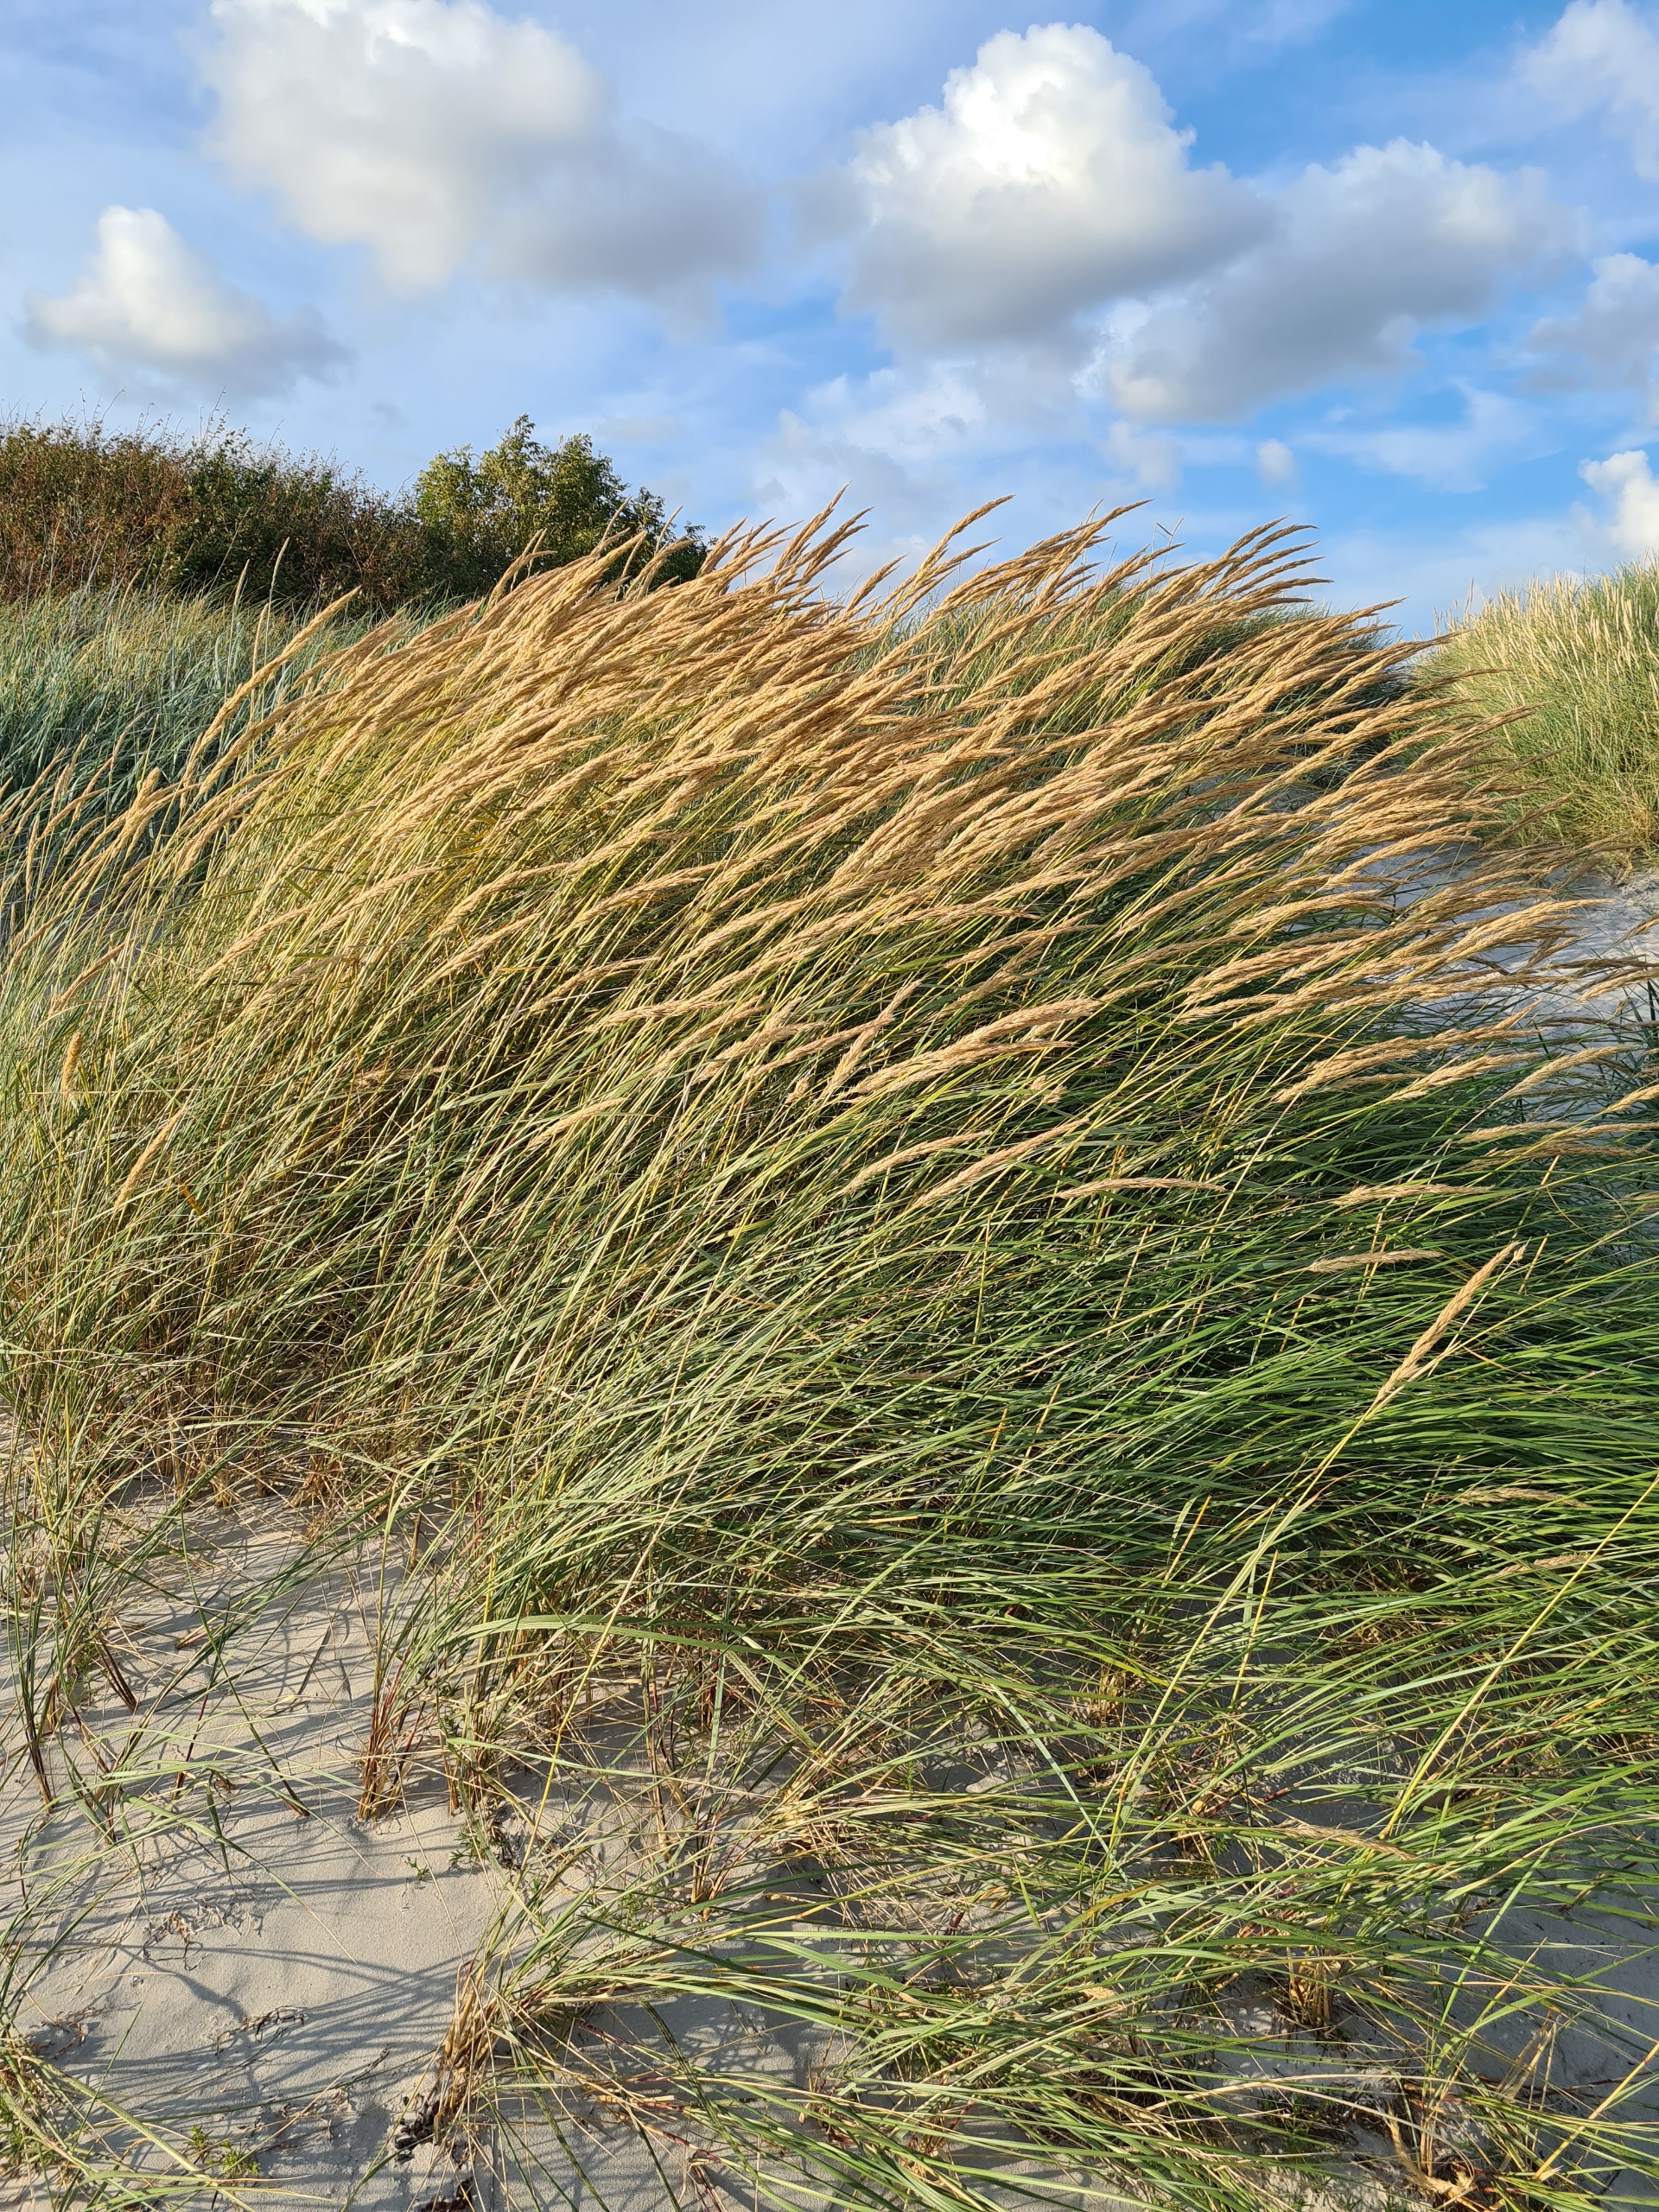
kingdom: Plantae
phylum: Tracheophyta
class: Liliopsida
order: Poales
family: Poaceae
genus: Calamagrostis
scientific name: Calamagrostis arenaria
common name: Sand-hjælme
